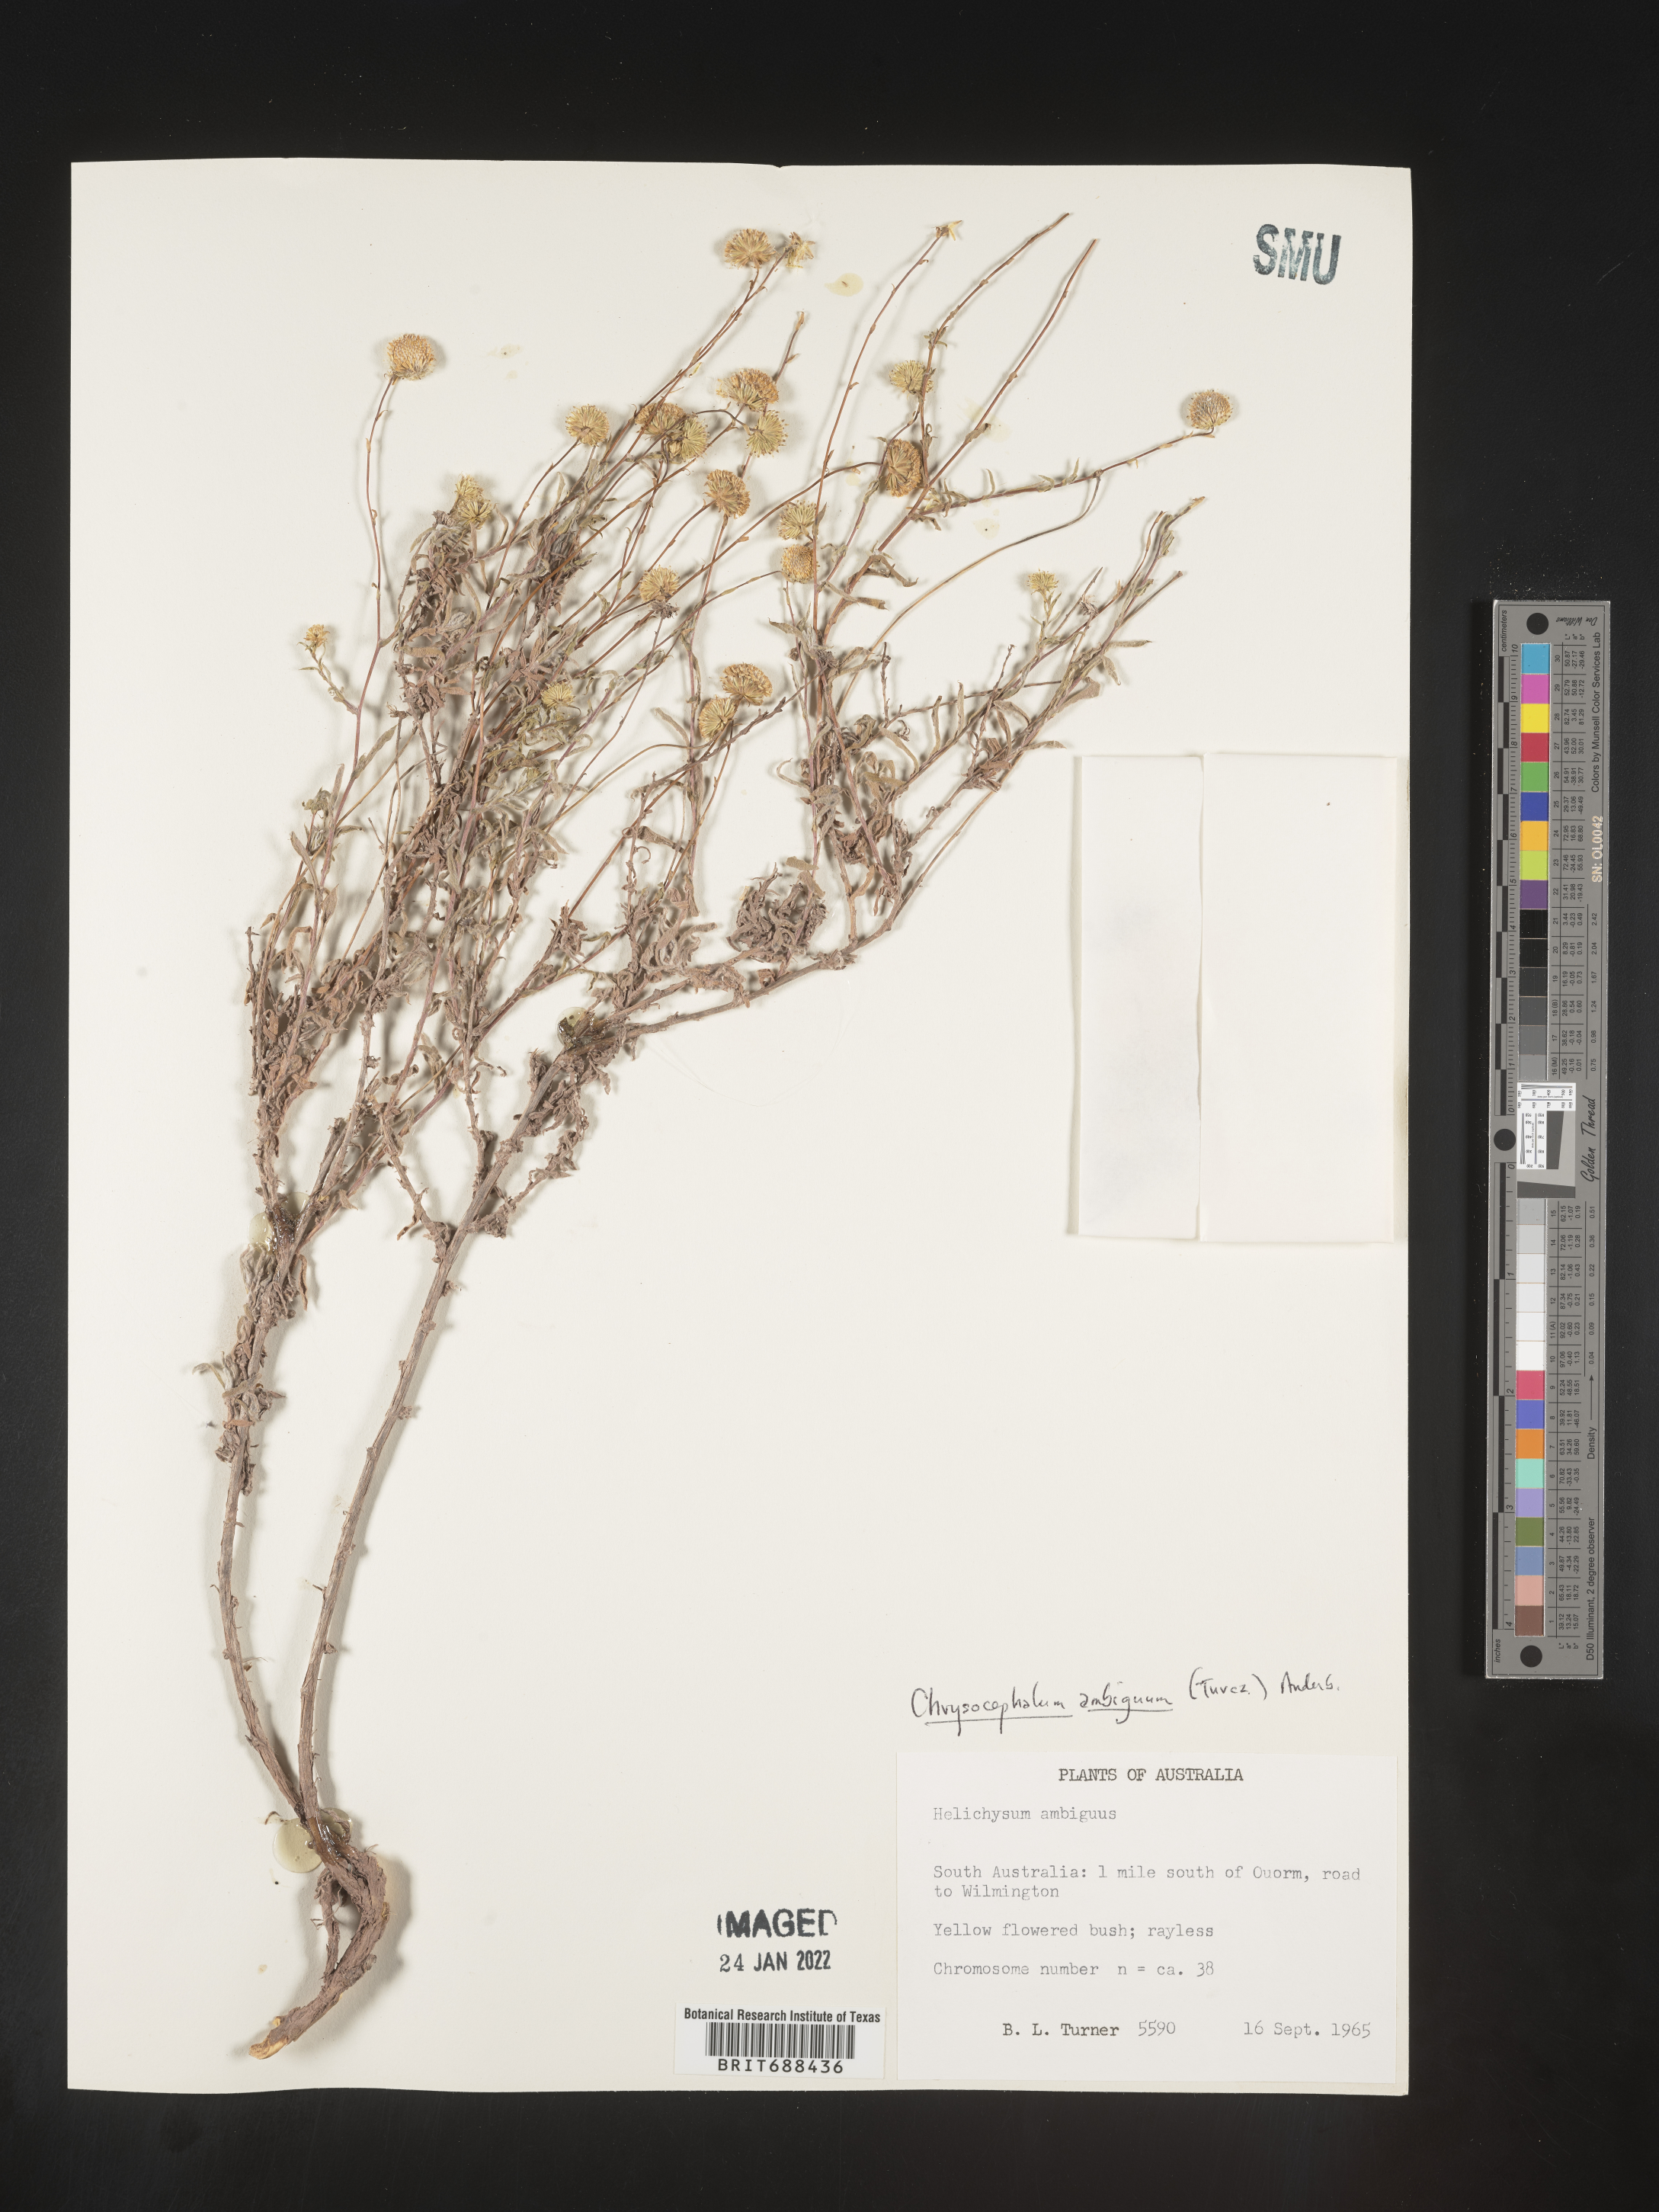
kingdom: Plantae
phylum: Tracheophyta
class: Magnoliopsida
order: Asterales
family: Asteraceae
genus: Chrysocephalum
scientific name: Chrysocephalum
